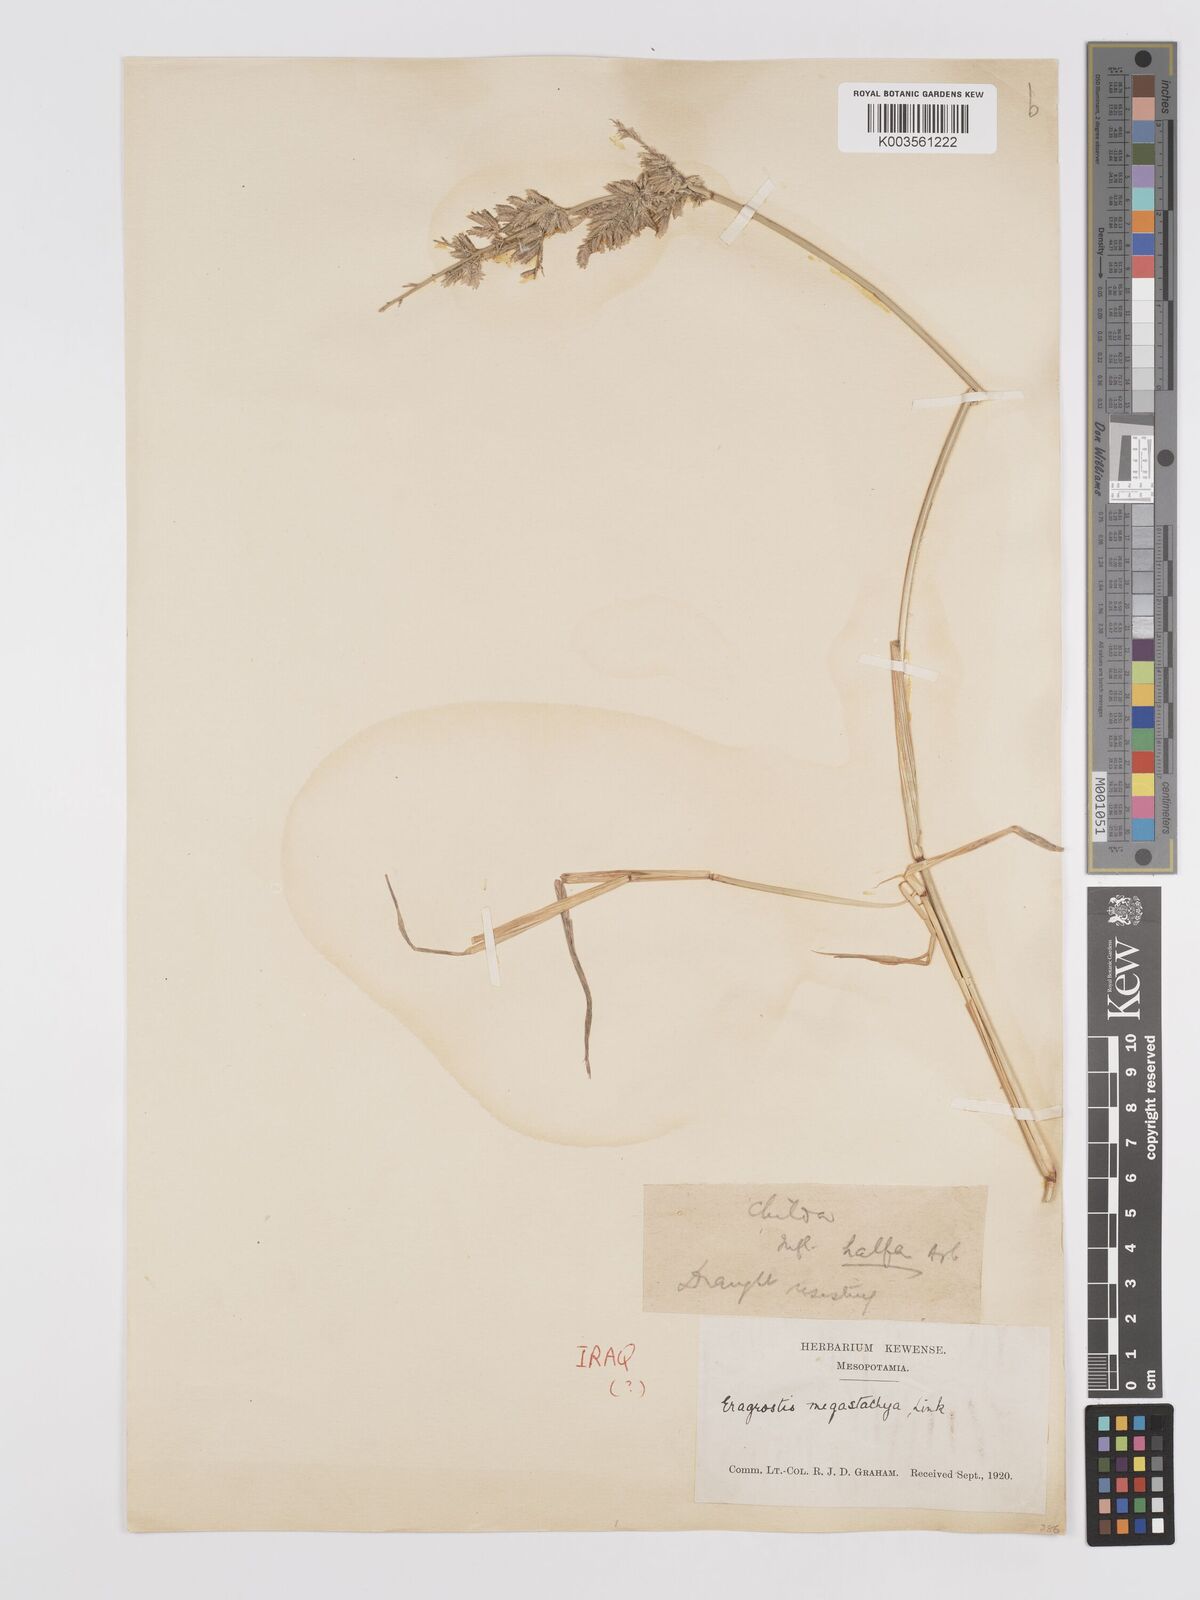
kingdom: Plantae
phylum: Tracheophyta
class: Liliopsida
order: Poales
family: Poaceae
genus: Eragrostis
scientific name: Eragrostis cilianensis
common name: Stinkgrass
